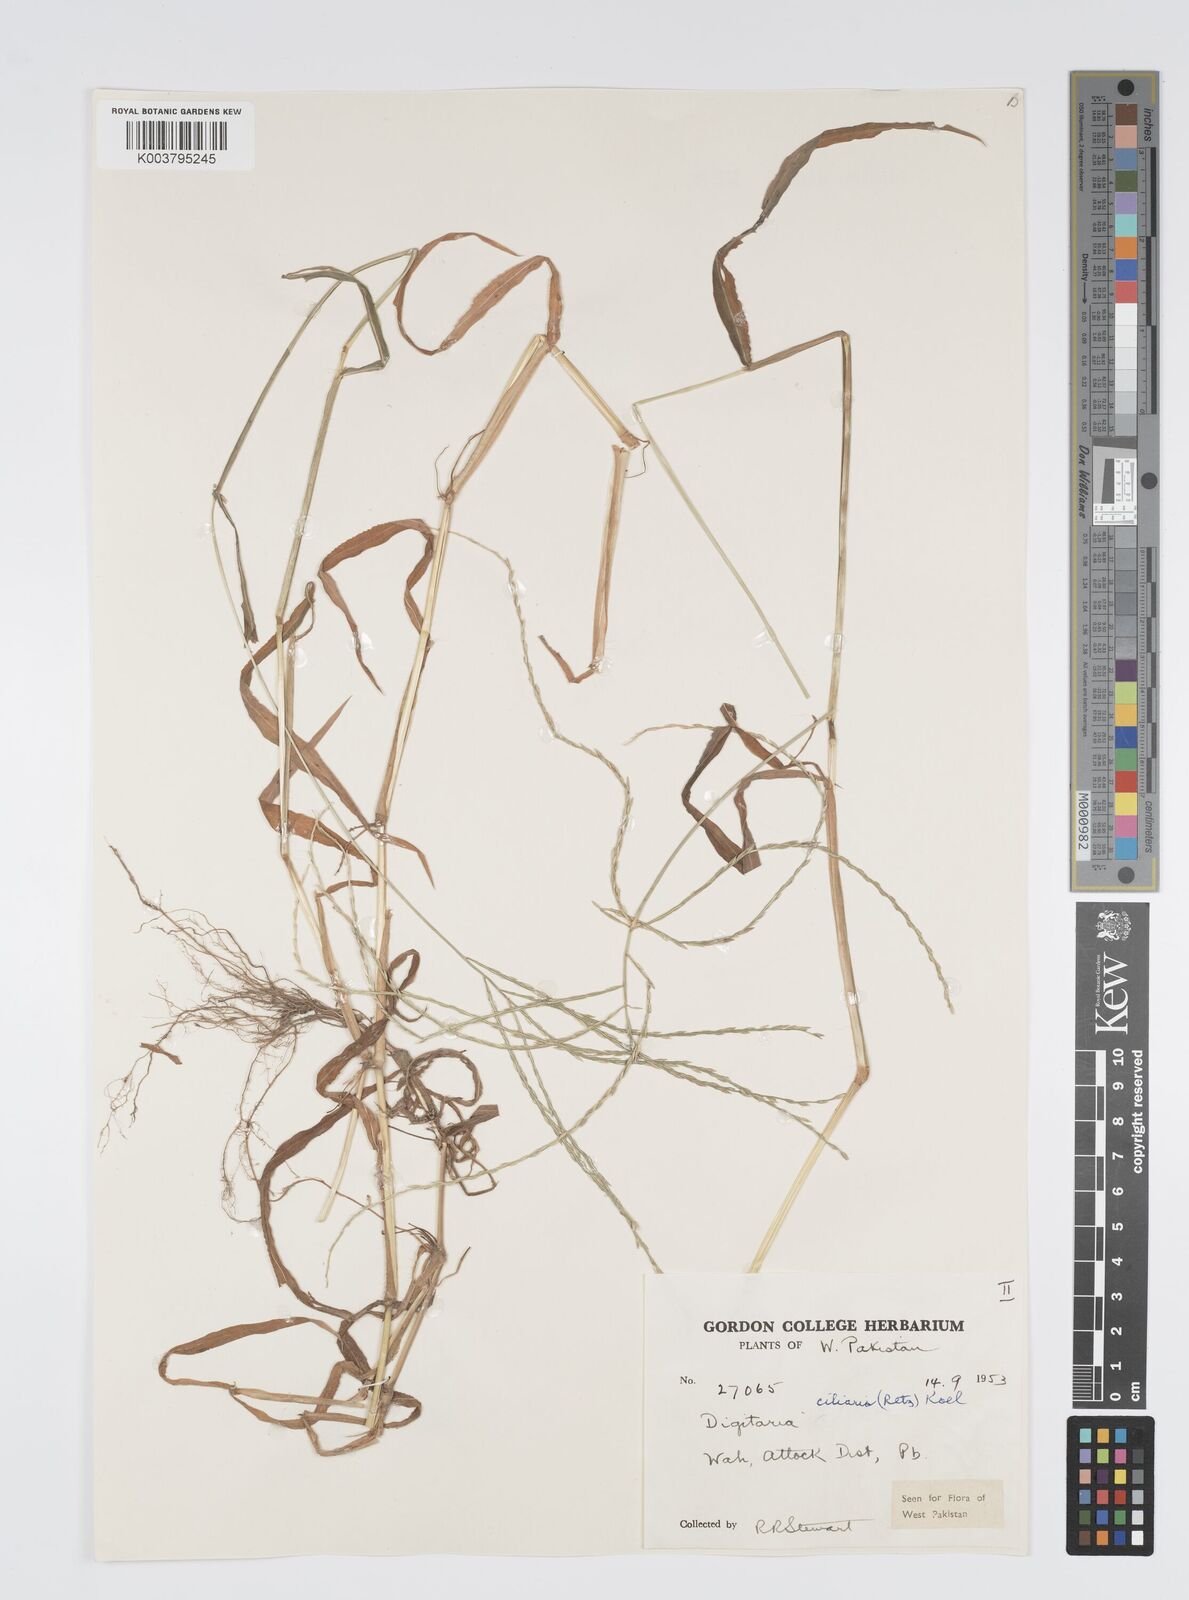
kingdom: Plantae
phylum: Tracheophyta
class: Liliopsida
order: Poales
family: Poaceae
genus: Digitaria
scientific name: Digitaria ciliaris
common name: Tropical finger-grass
